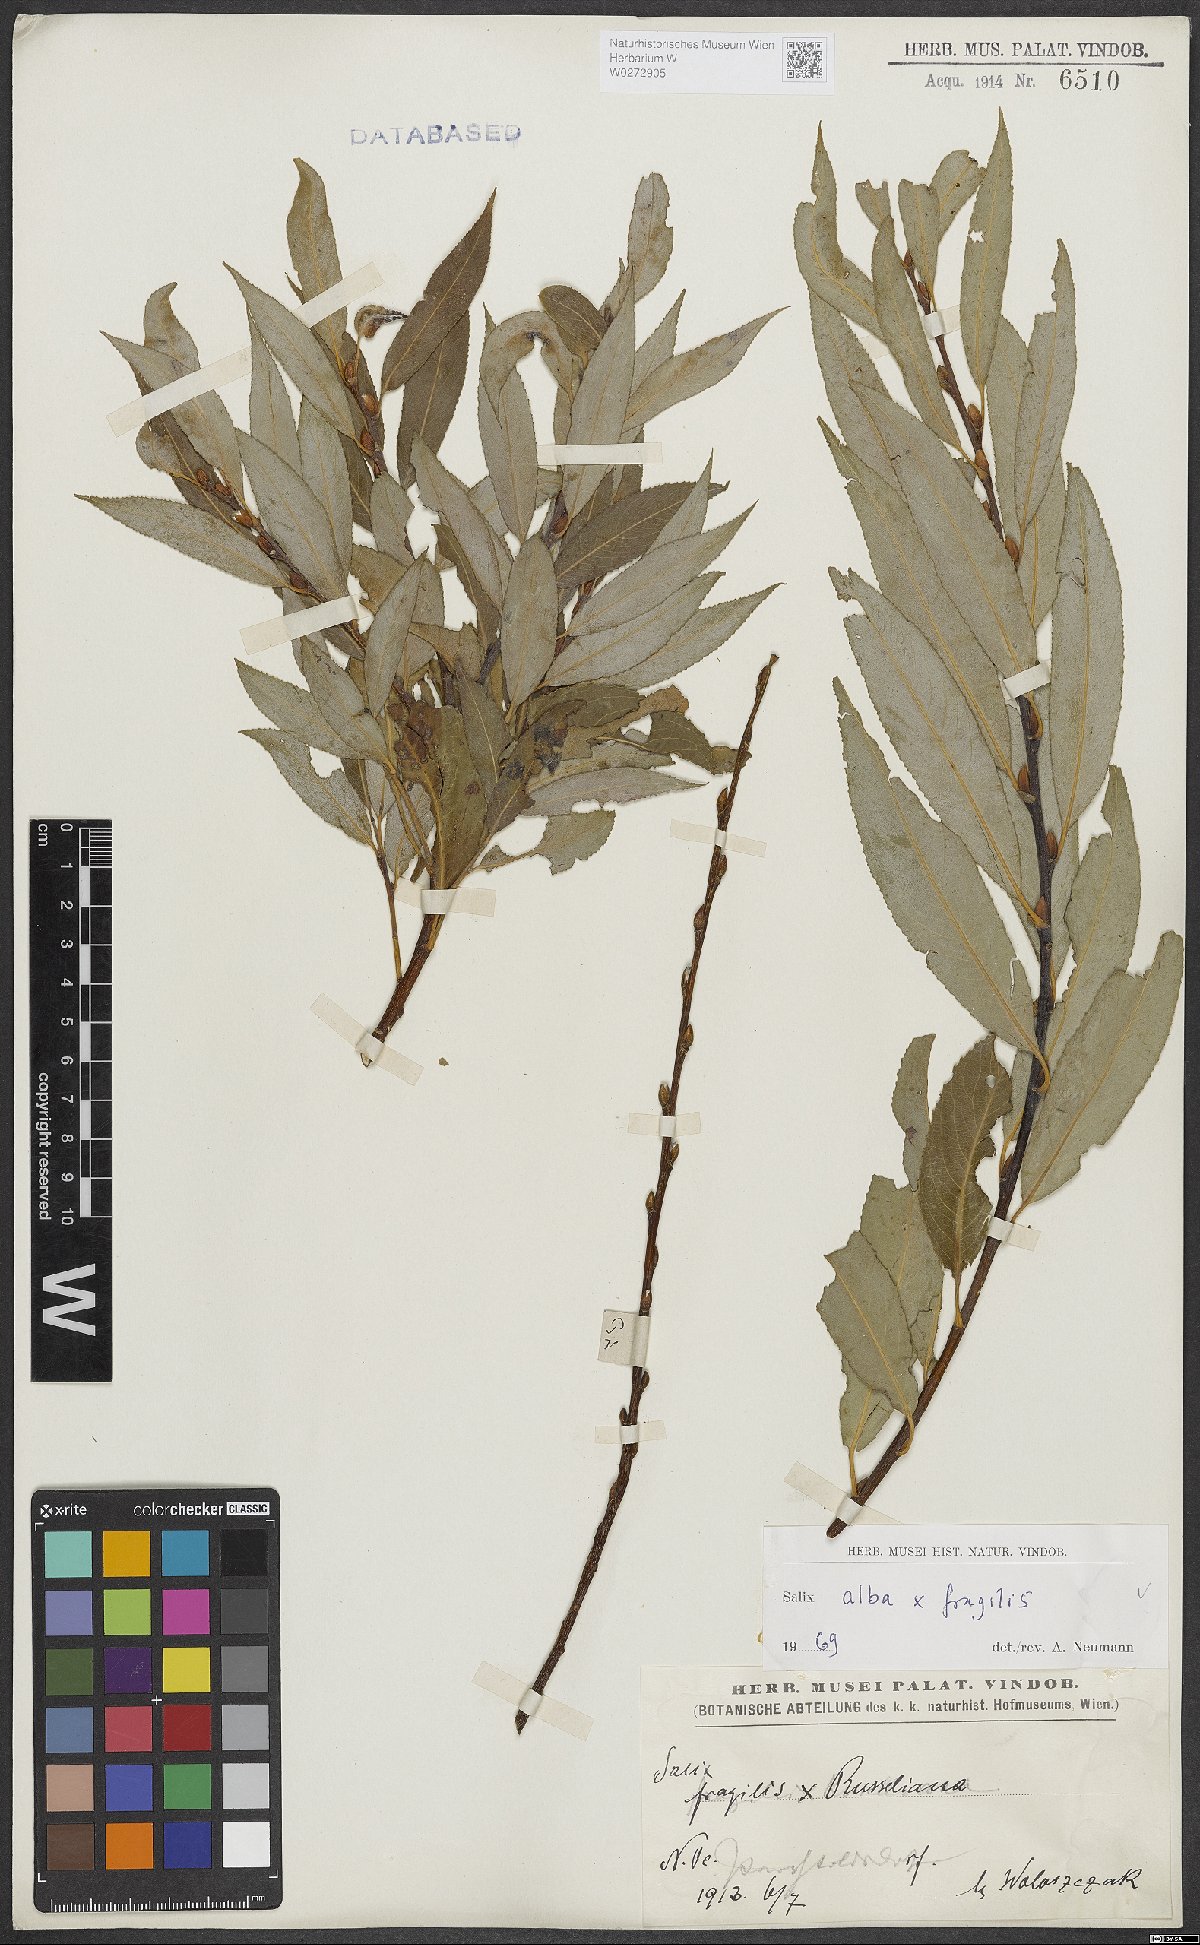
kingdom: Plantae
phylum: Tracheophyta
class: Magnoliopsida
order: Malpighiales
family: Salicaceae
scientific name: Salicaceae
